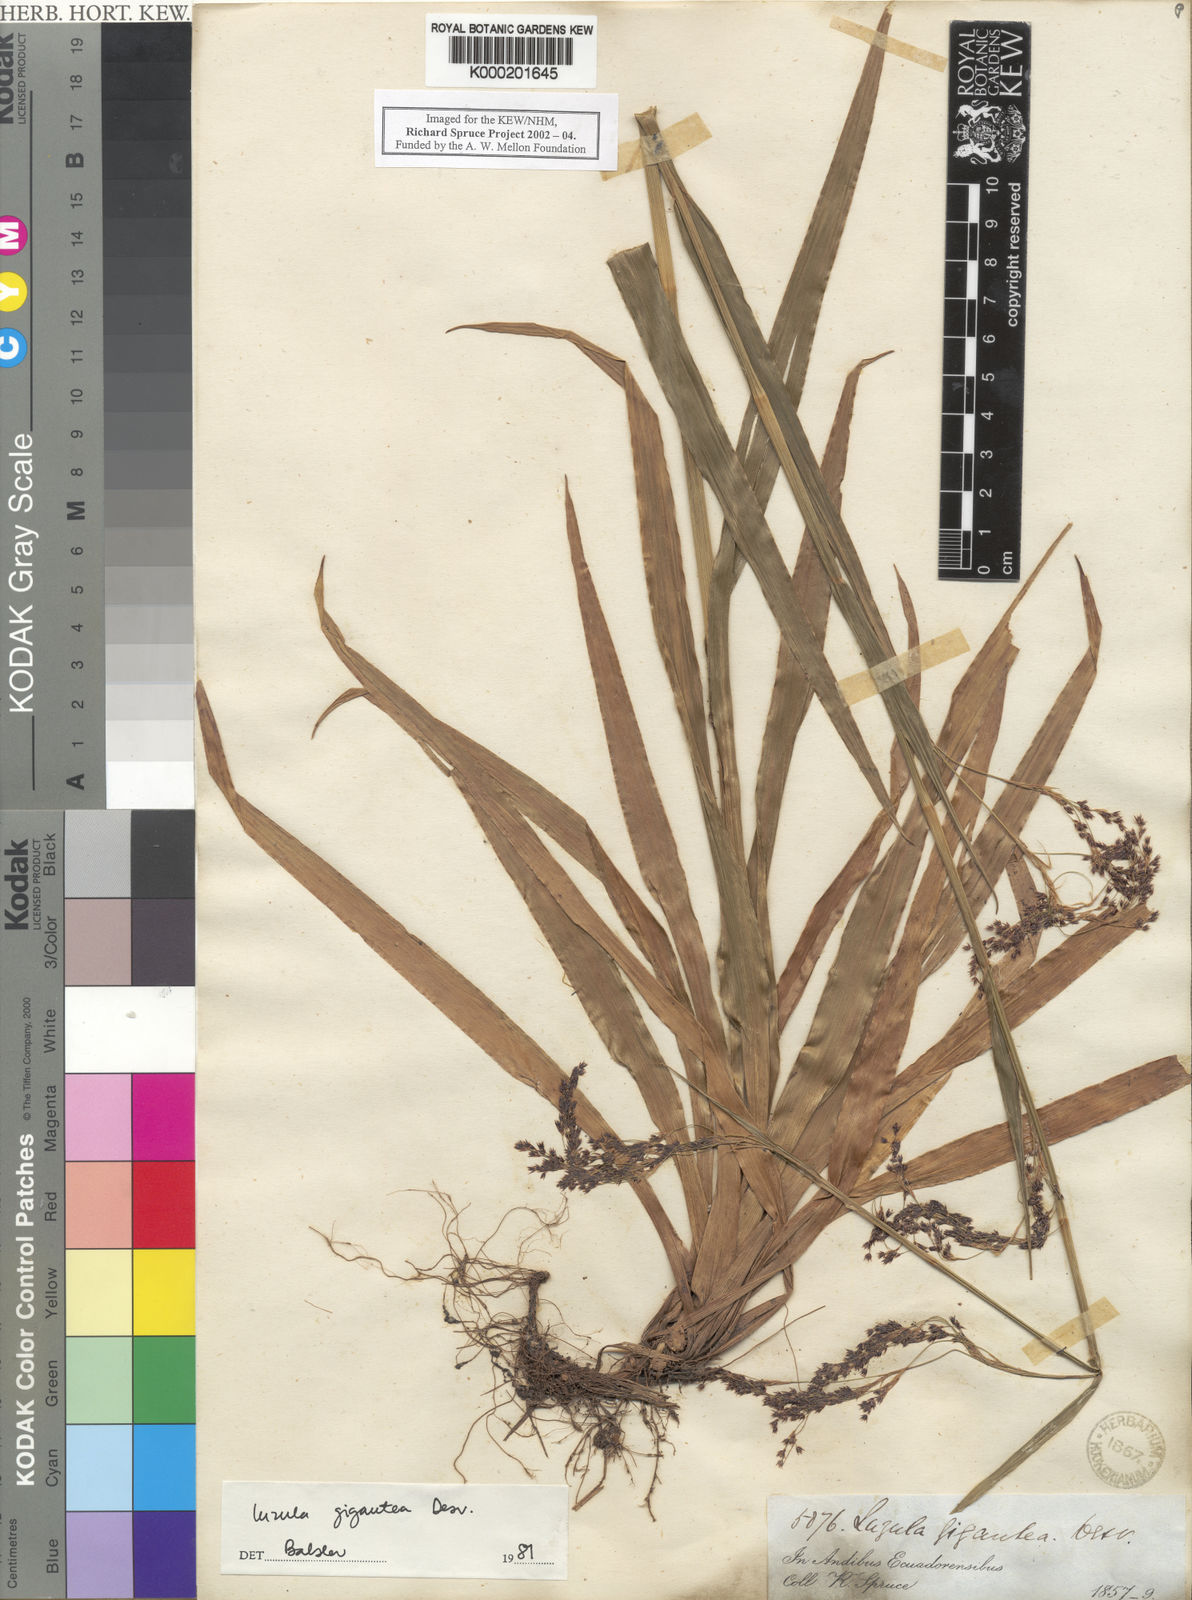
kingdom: Plantae
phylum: Tracheophyta
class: Liliopsida
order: Poales
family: Juncaceae
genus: Luzula
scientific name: Luzula gigantea
